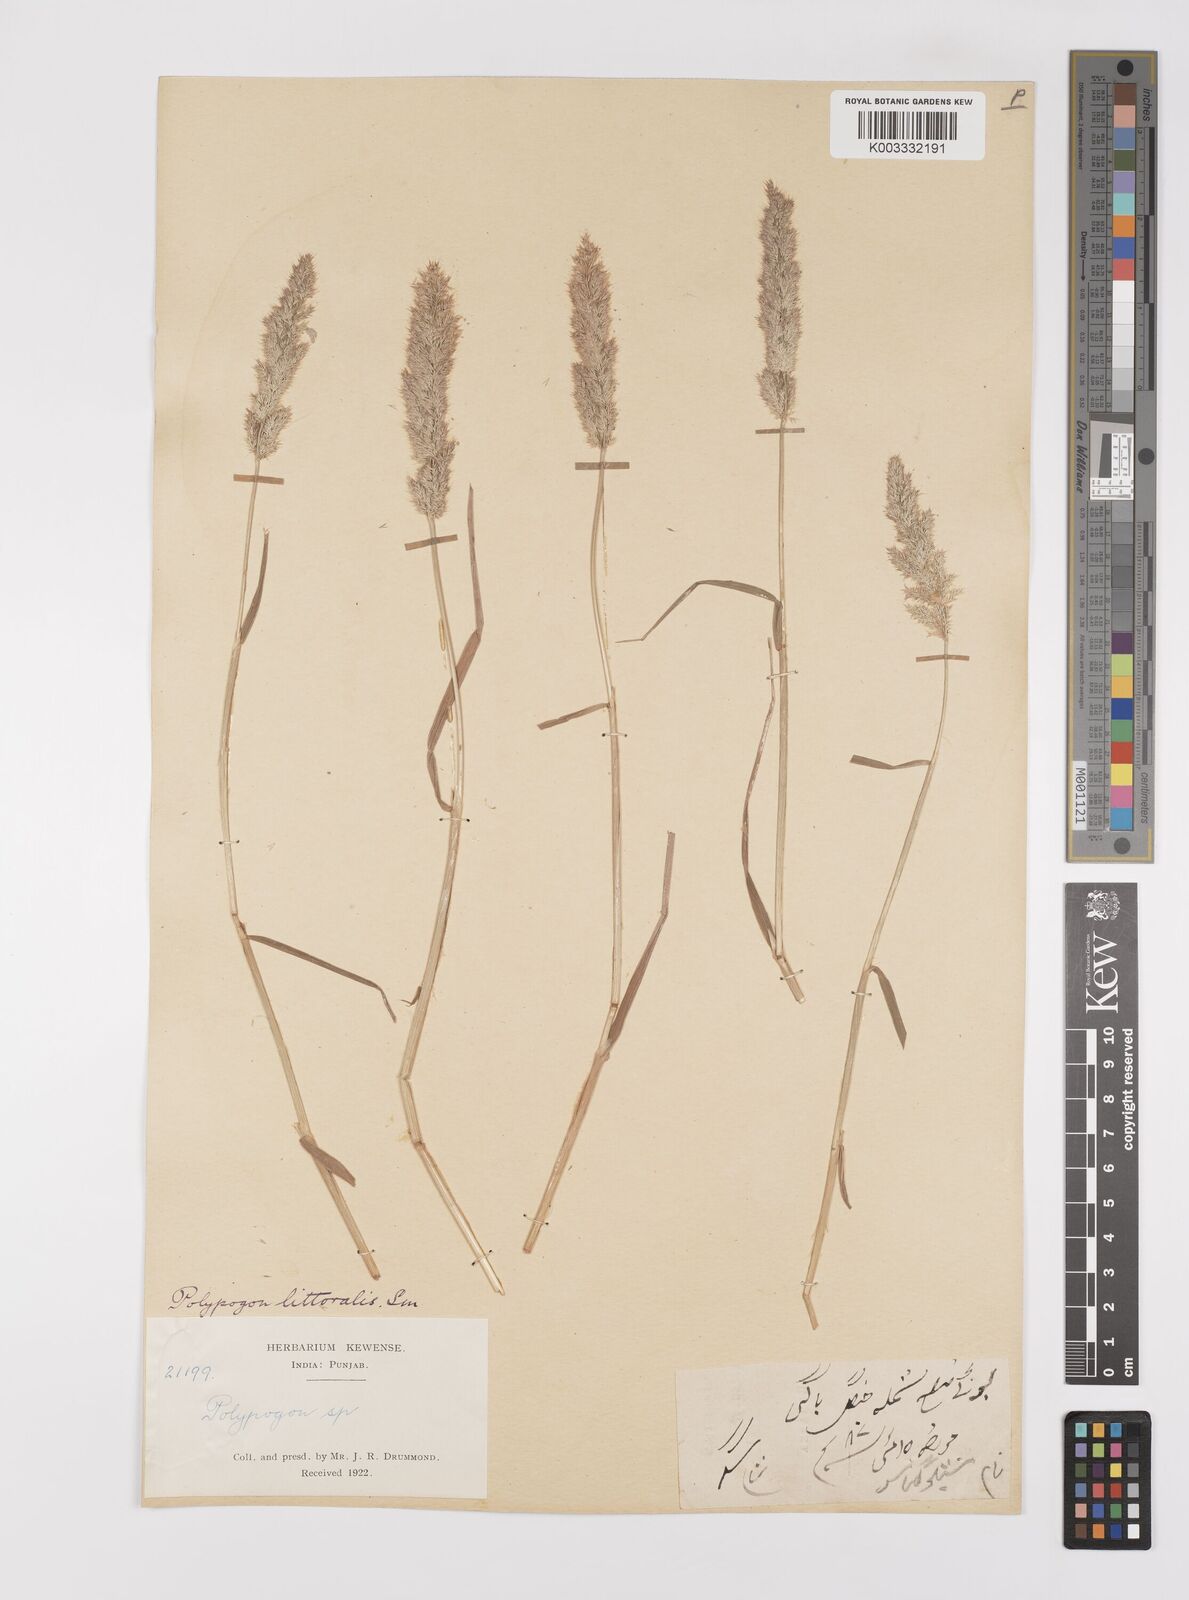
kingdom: Plantae
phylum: Tracheophyta
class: Liliopsida
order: Poales
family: Poaceae
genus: Polypogon
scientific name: Polypogon fugax
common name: Asia minor bluegrass
